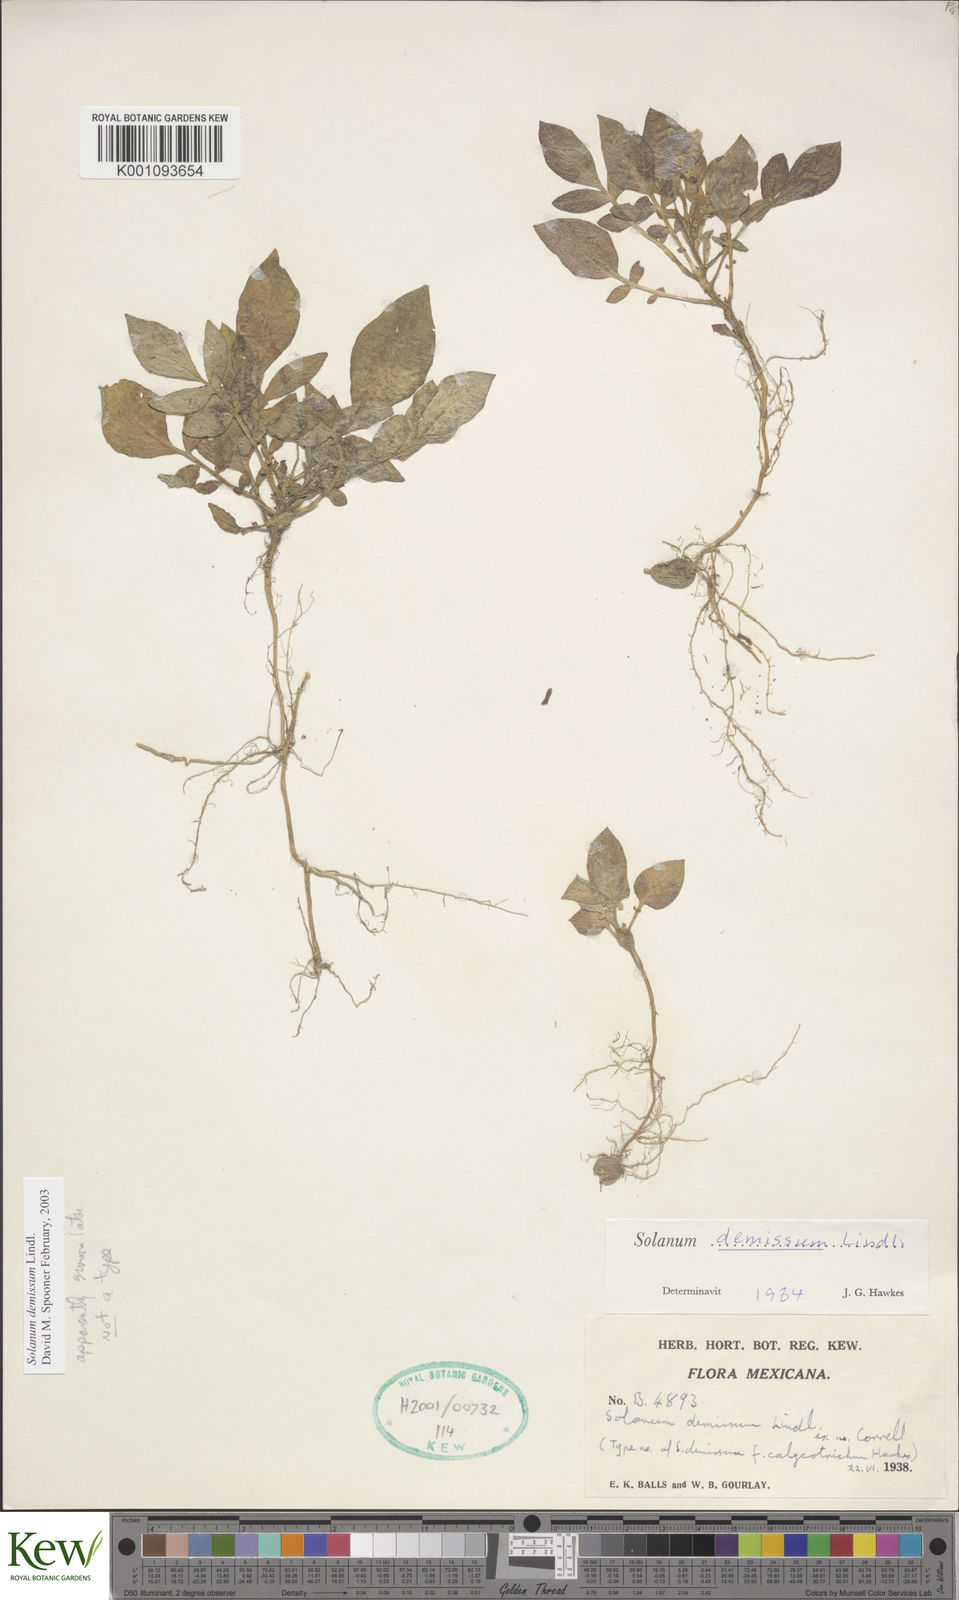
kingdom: Plantae
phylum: Tracheophyta
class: Magnoliopsida
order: Solanales
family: Solanaceae
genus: Solanum
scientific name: Solanum demissum
